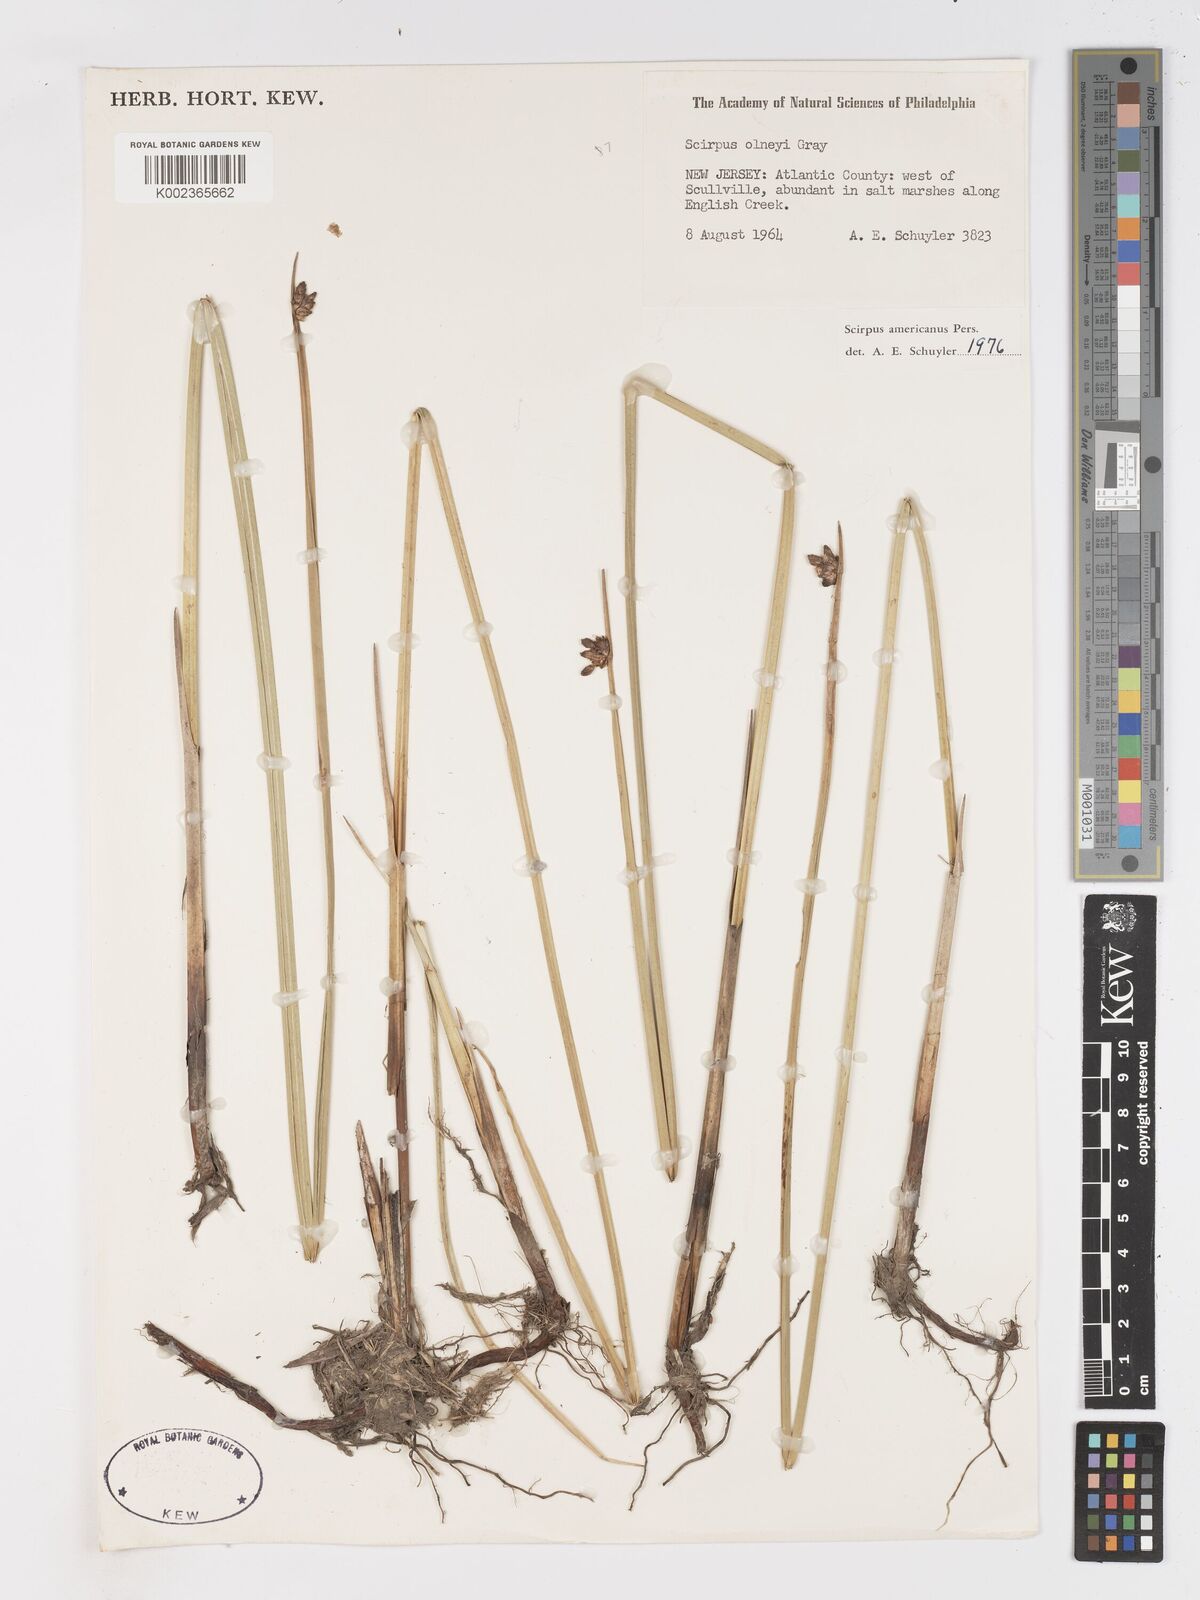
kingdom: Plantae
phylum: Tracheophyta
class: Liliopsida
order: Poales
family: Cyperaceae
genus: Schoenoplectus
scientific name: Schoenoplectus americanus
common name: American three-square bulrush
